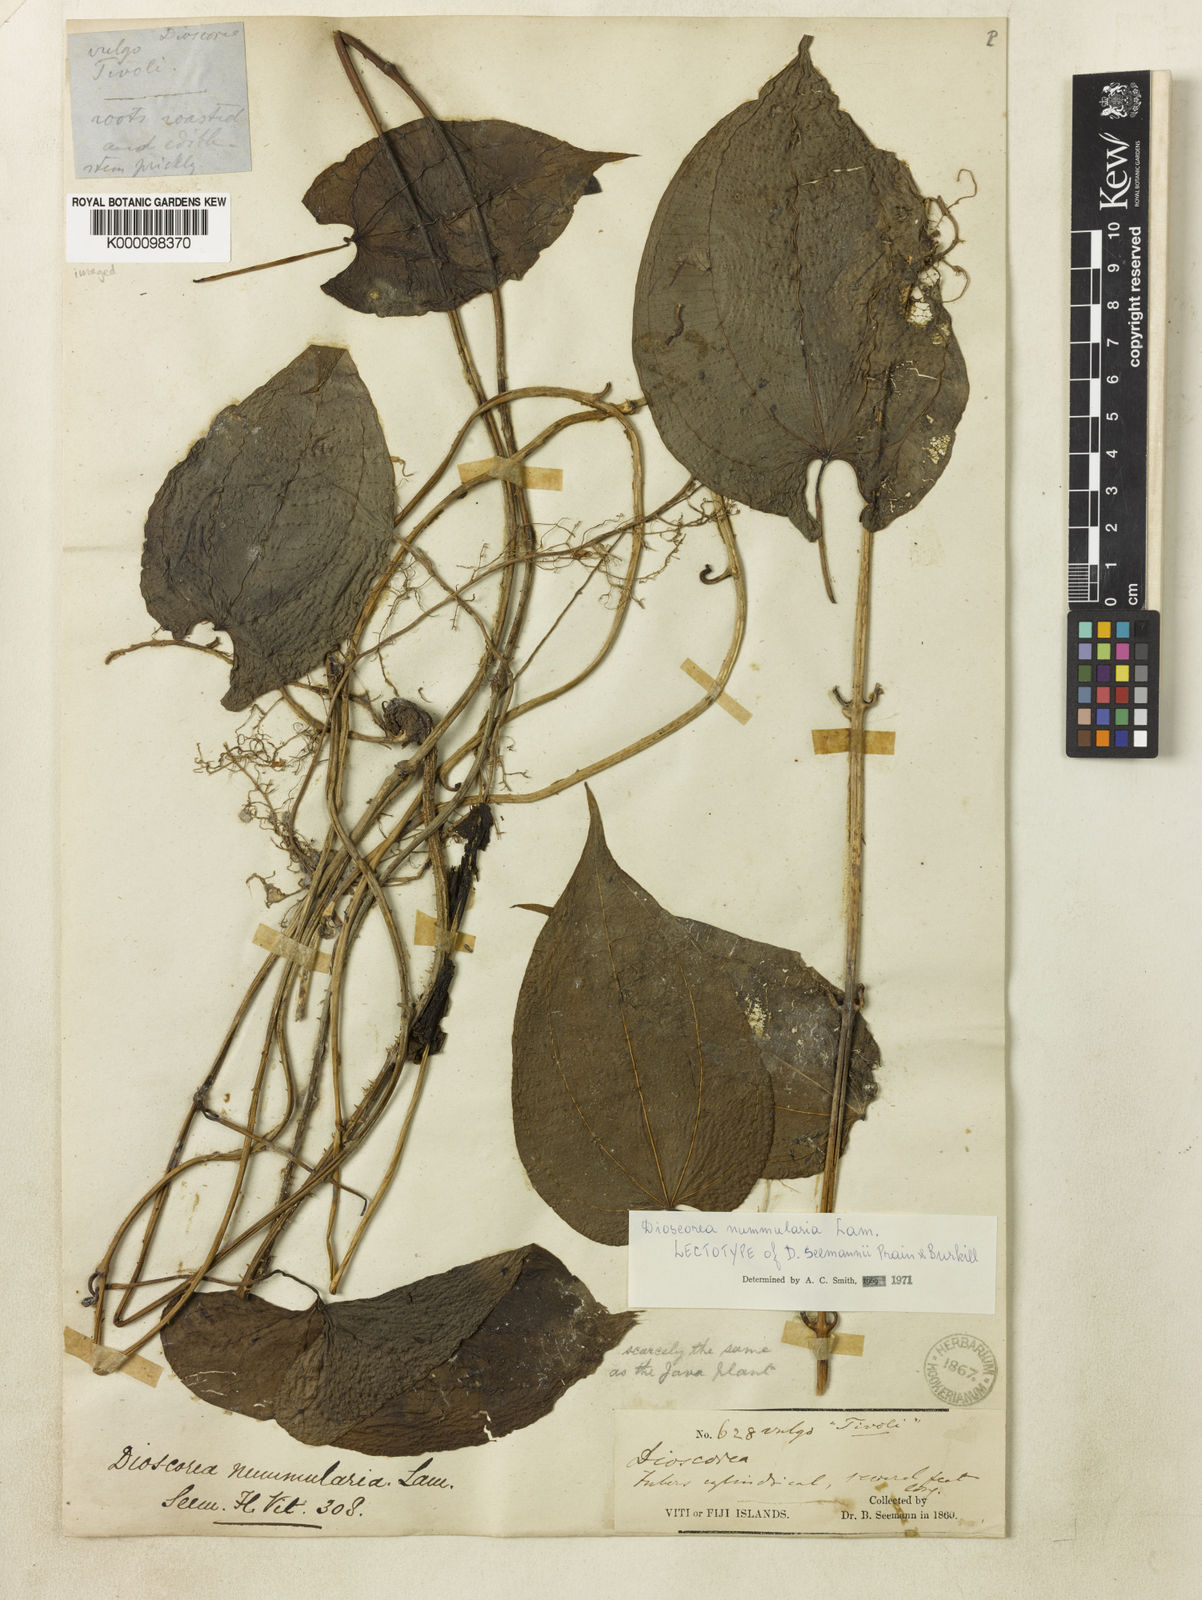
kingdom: Plantae
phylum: Tracheophyta
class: Liliopsida
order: Dioscoreales
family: Dioscoreaceae
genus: Dioscorea
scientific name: Dioscorea nummularia
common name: Pacific yam
